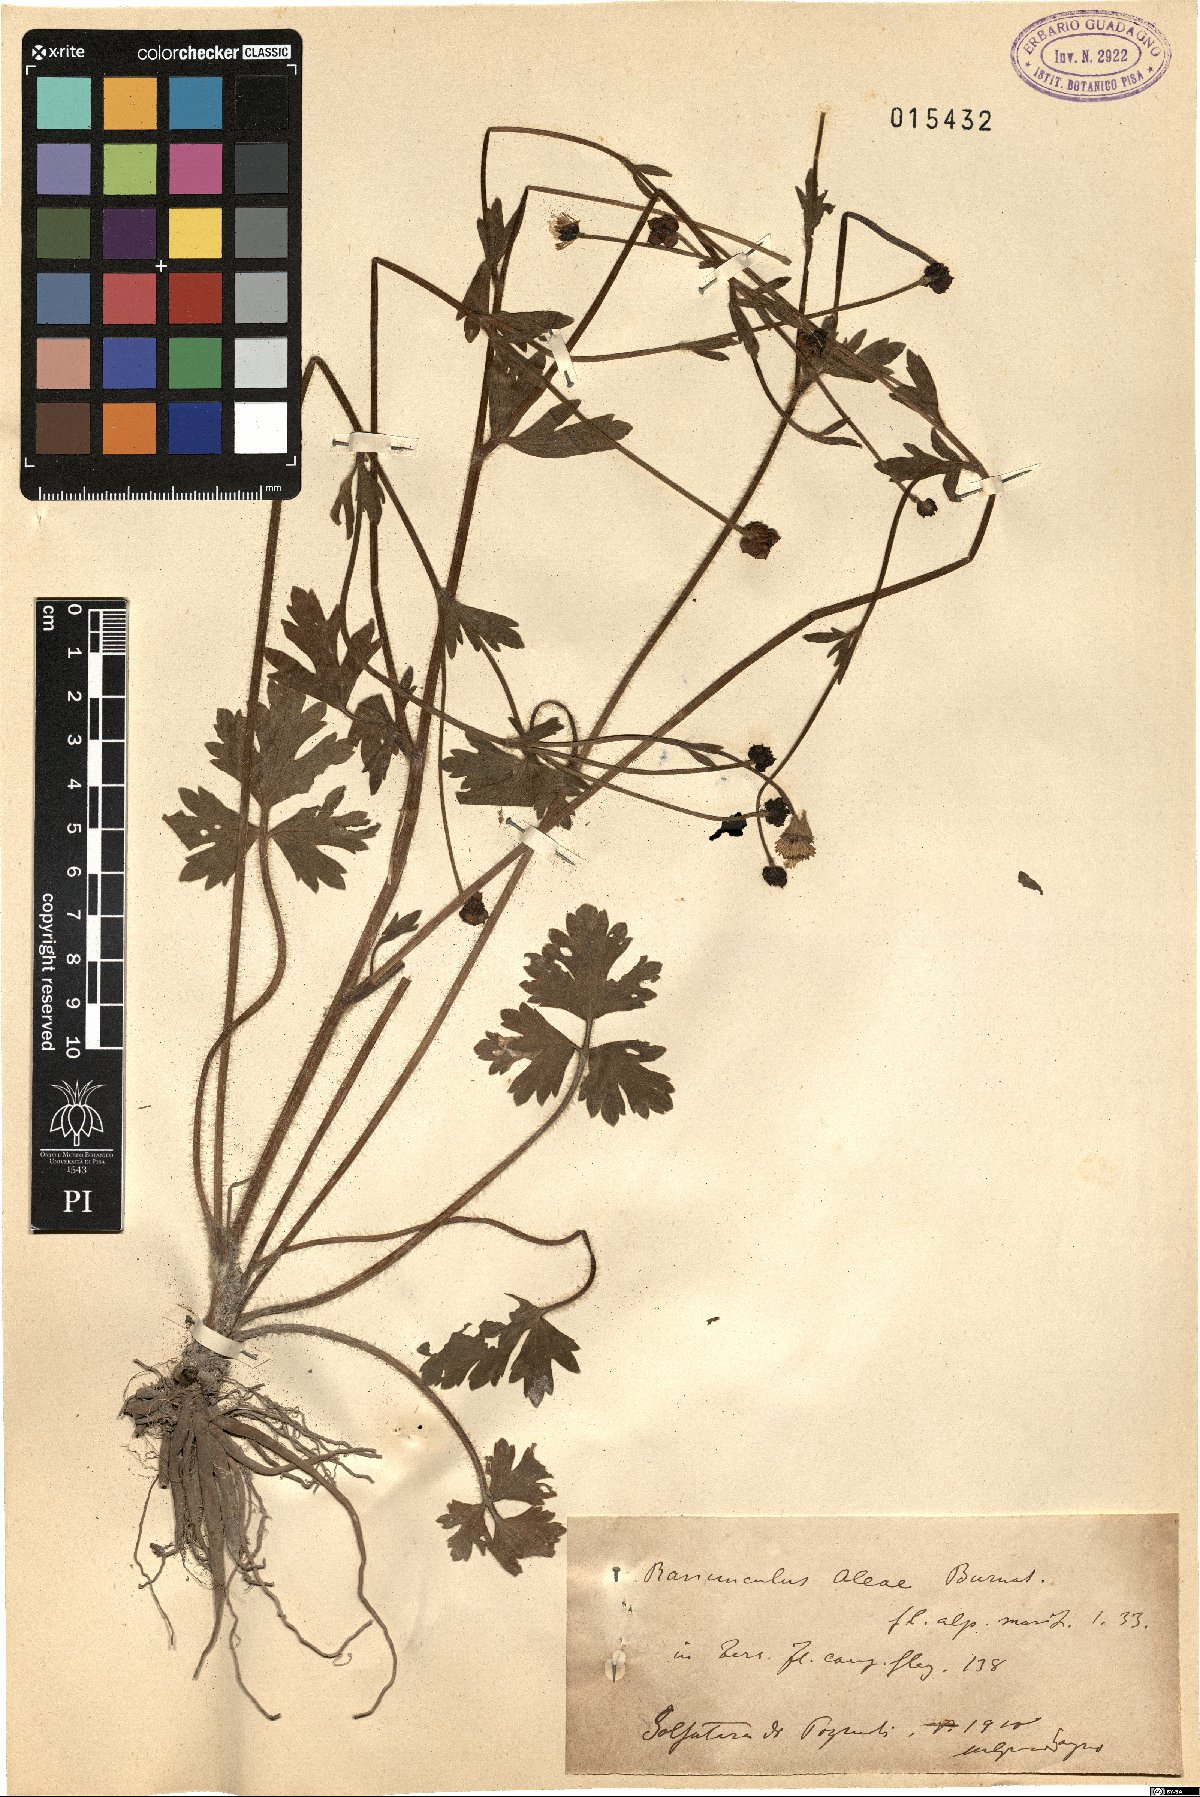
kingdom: Plantae
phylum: Tracheophyta
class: Magnoliopsida
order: Ranunculales
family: Ranunculaceae
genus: Ranunculus
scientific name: Ranunculus neapolitanus
